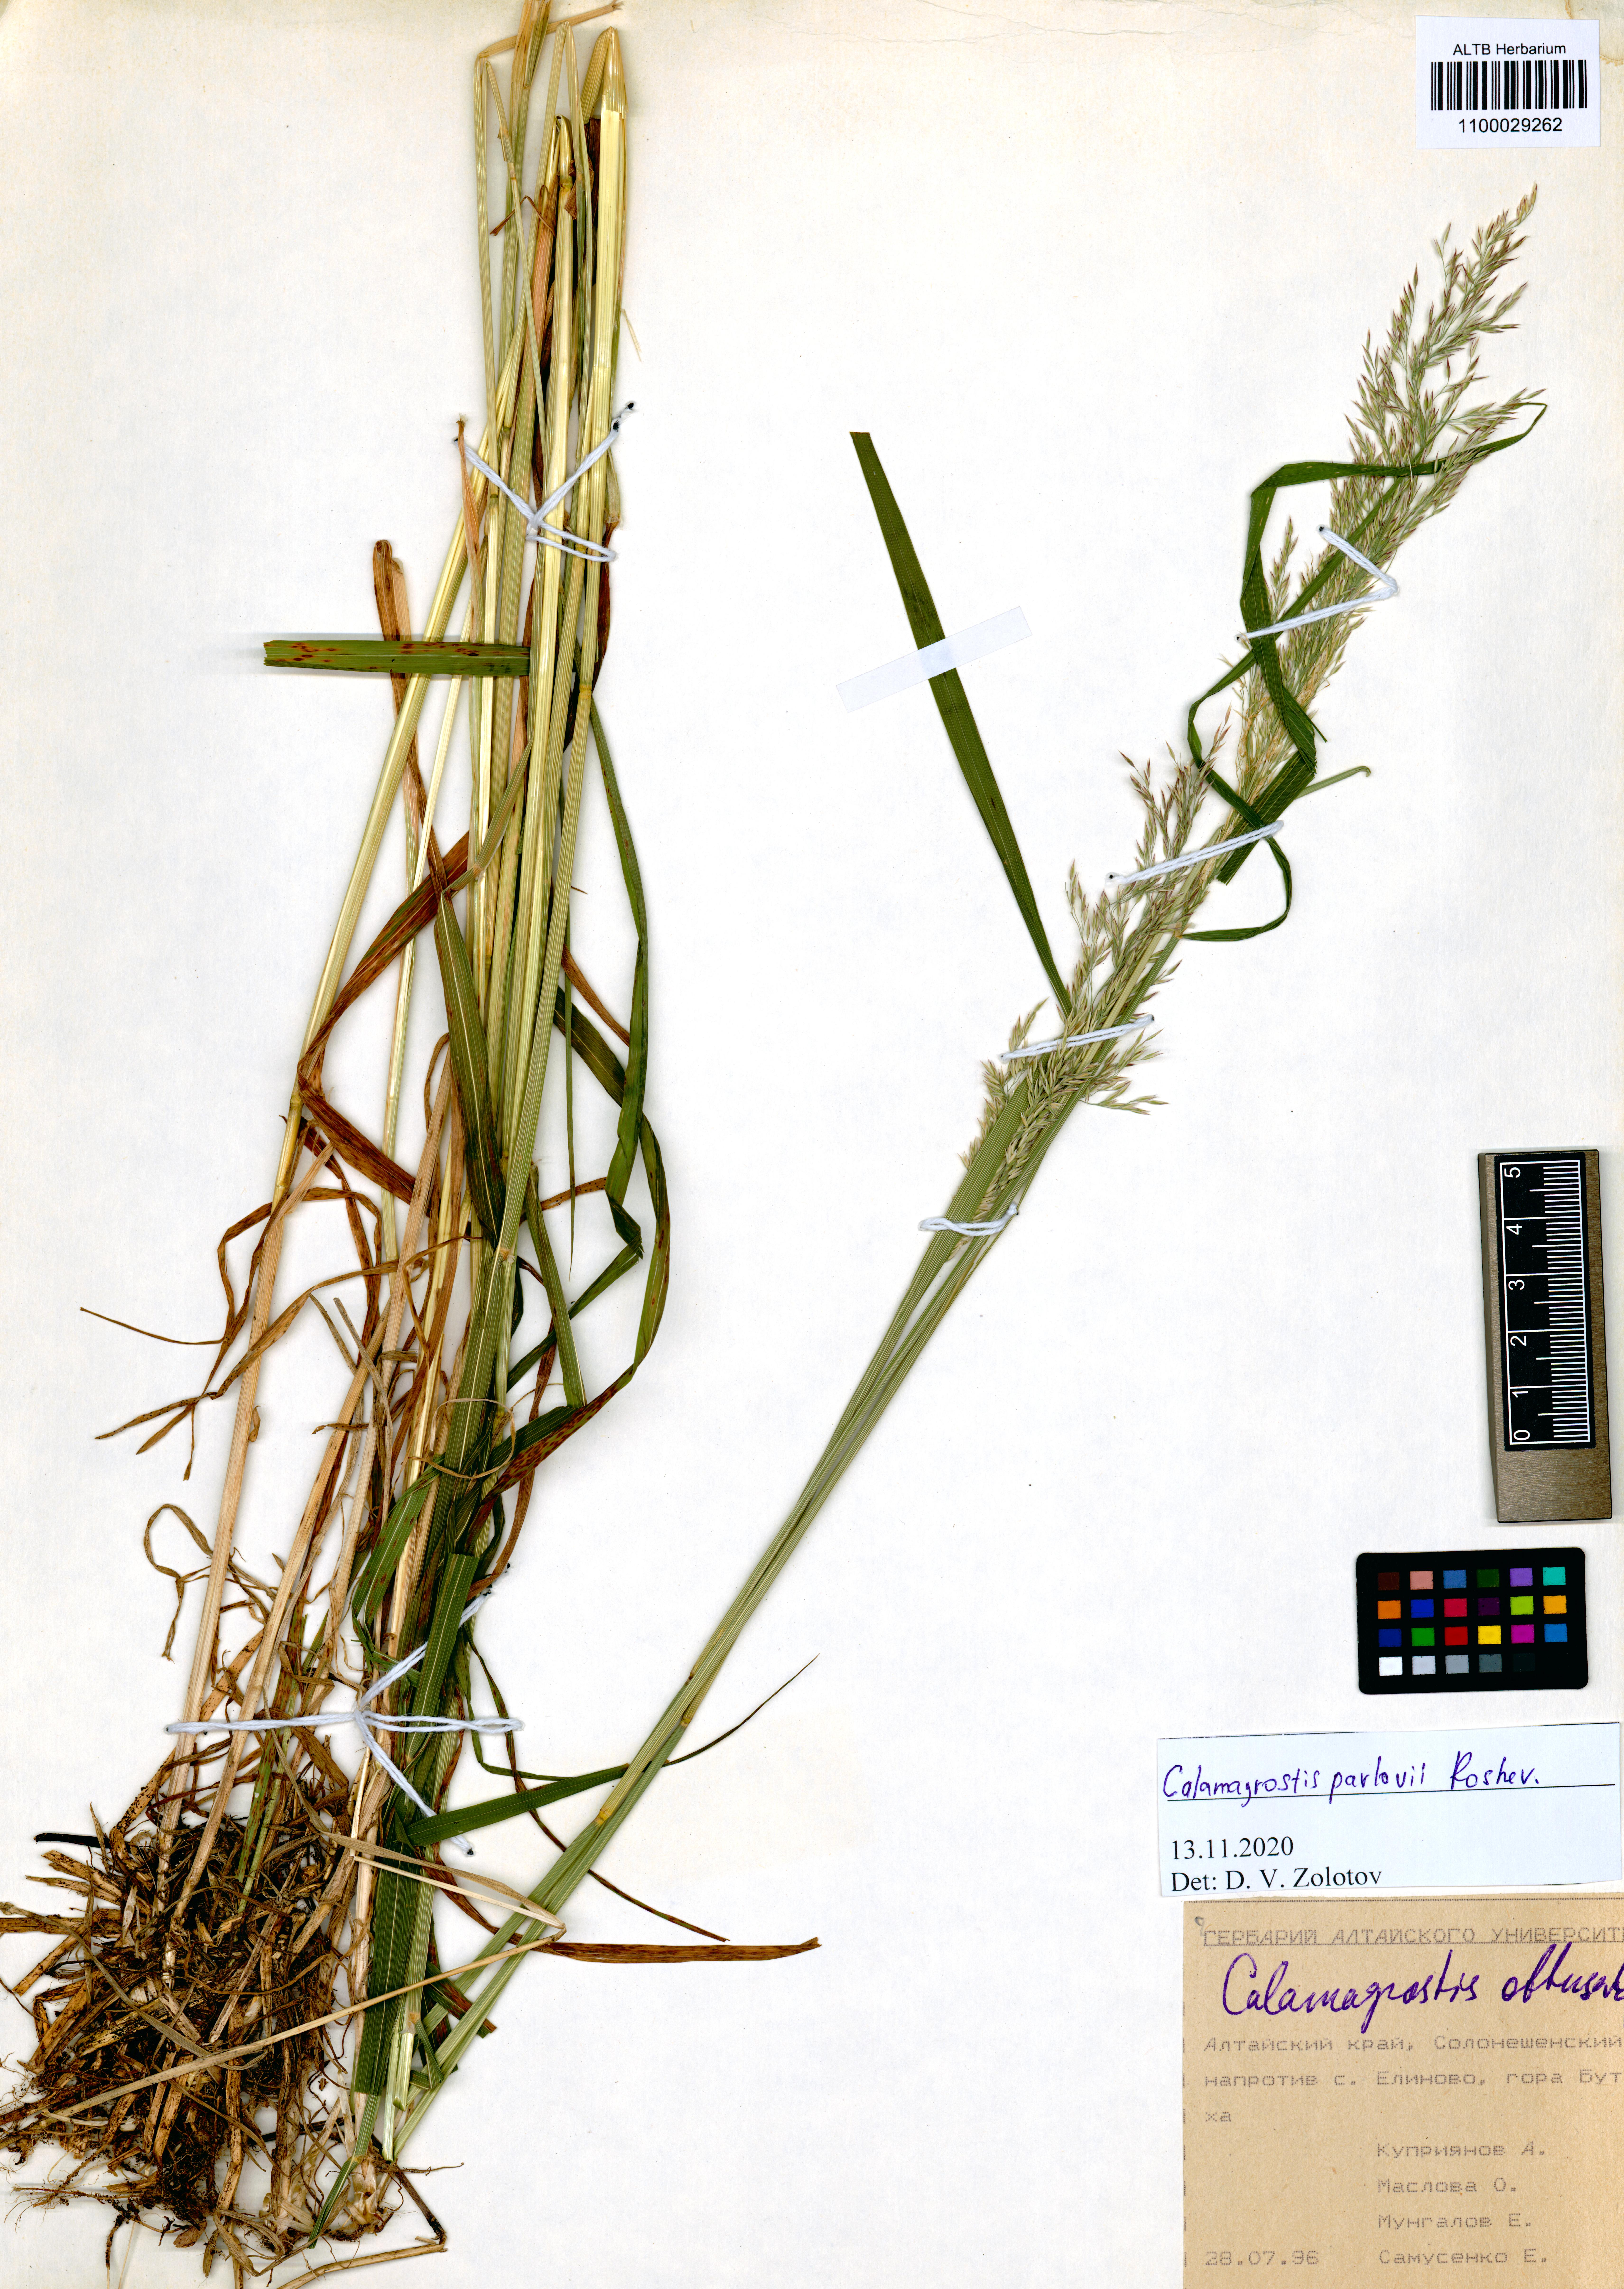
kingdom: Plantae
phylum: Tracheophyta
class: Liliopsida
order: Poales
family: Poaceae
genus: Calamagrostis
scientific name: Calamagrostis pavlovii
